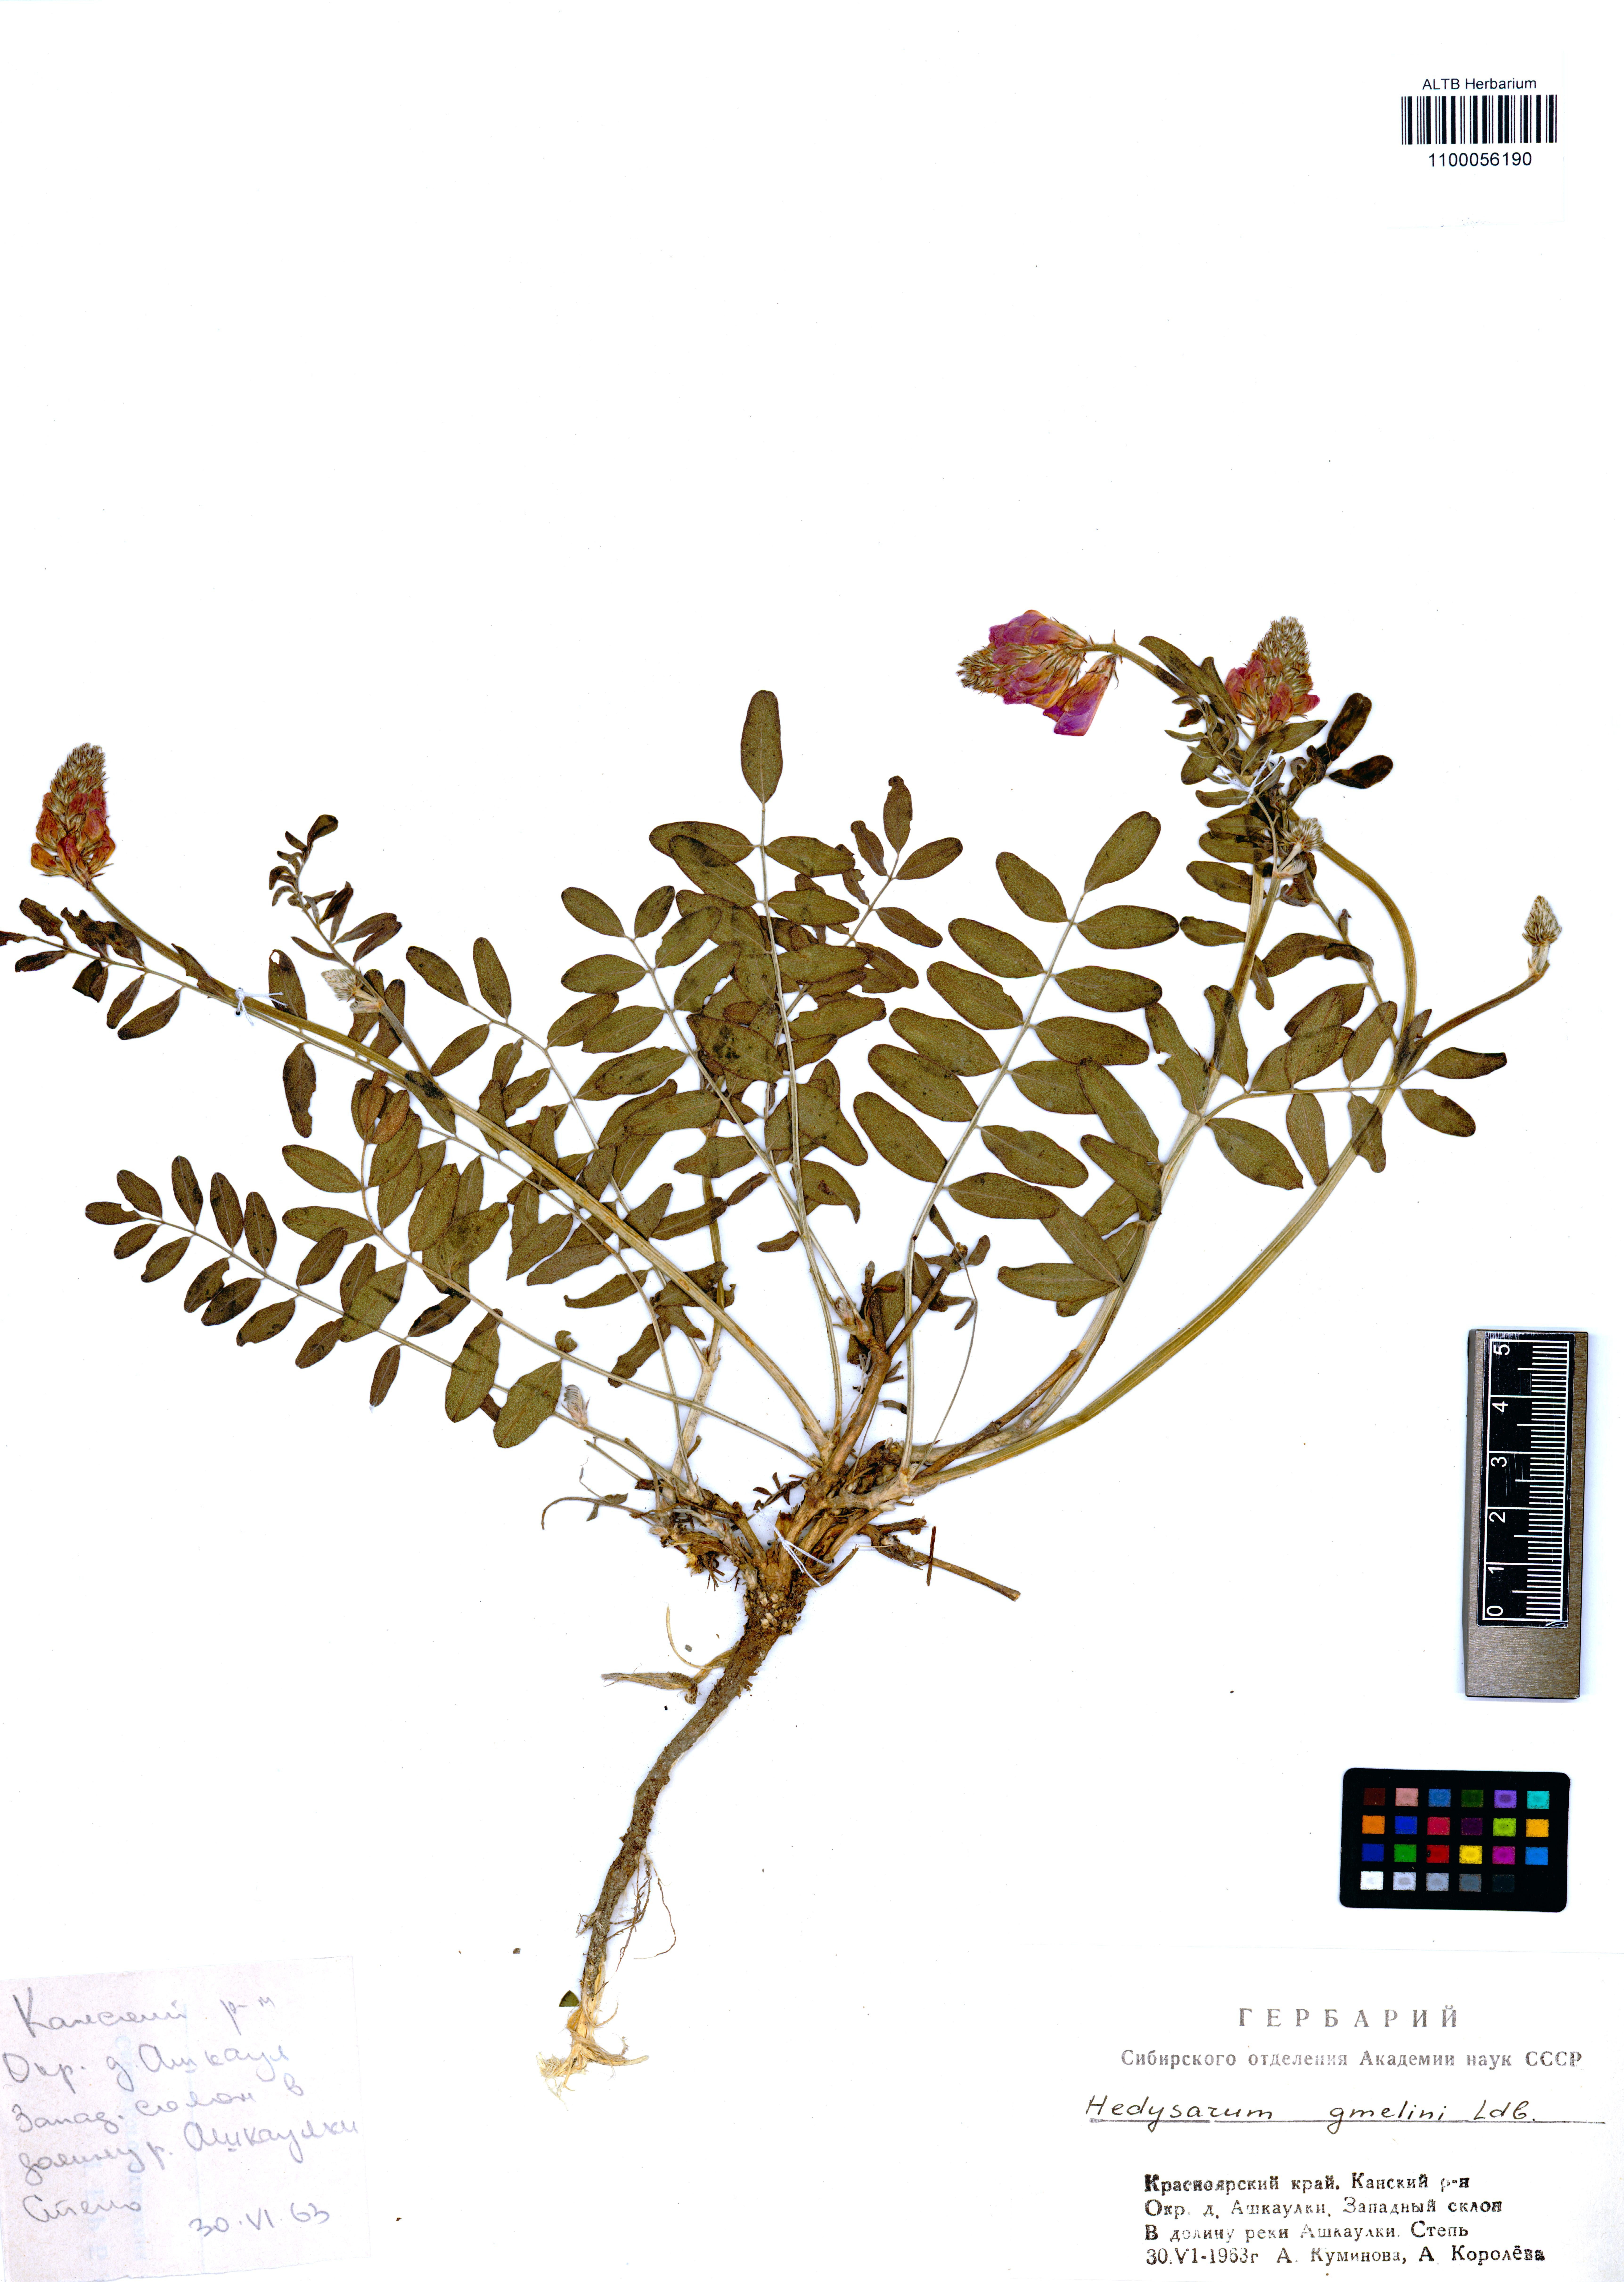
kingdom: Plantae
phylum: Tracheophyta
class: Magnoliopsida
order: Fabales
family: Fabaceae
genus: Hedysarum
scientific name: Hedysarum gmelinii
